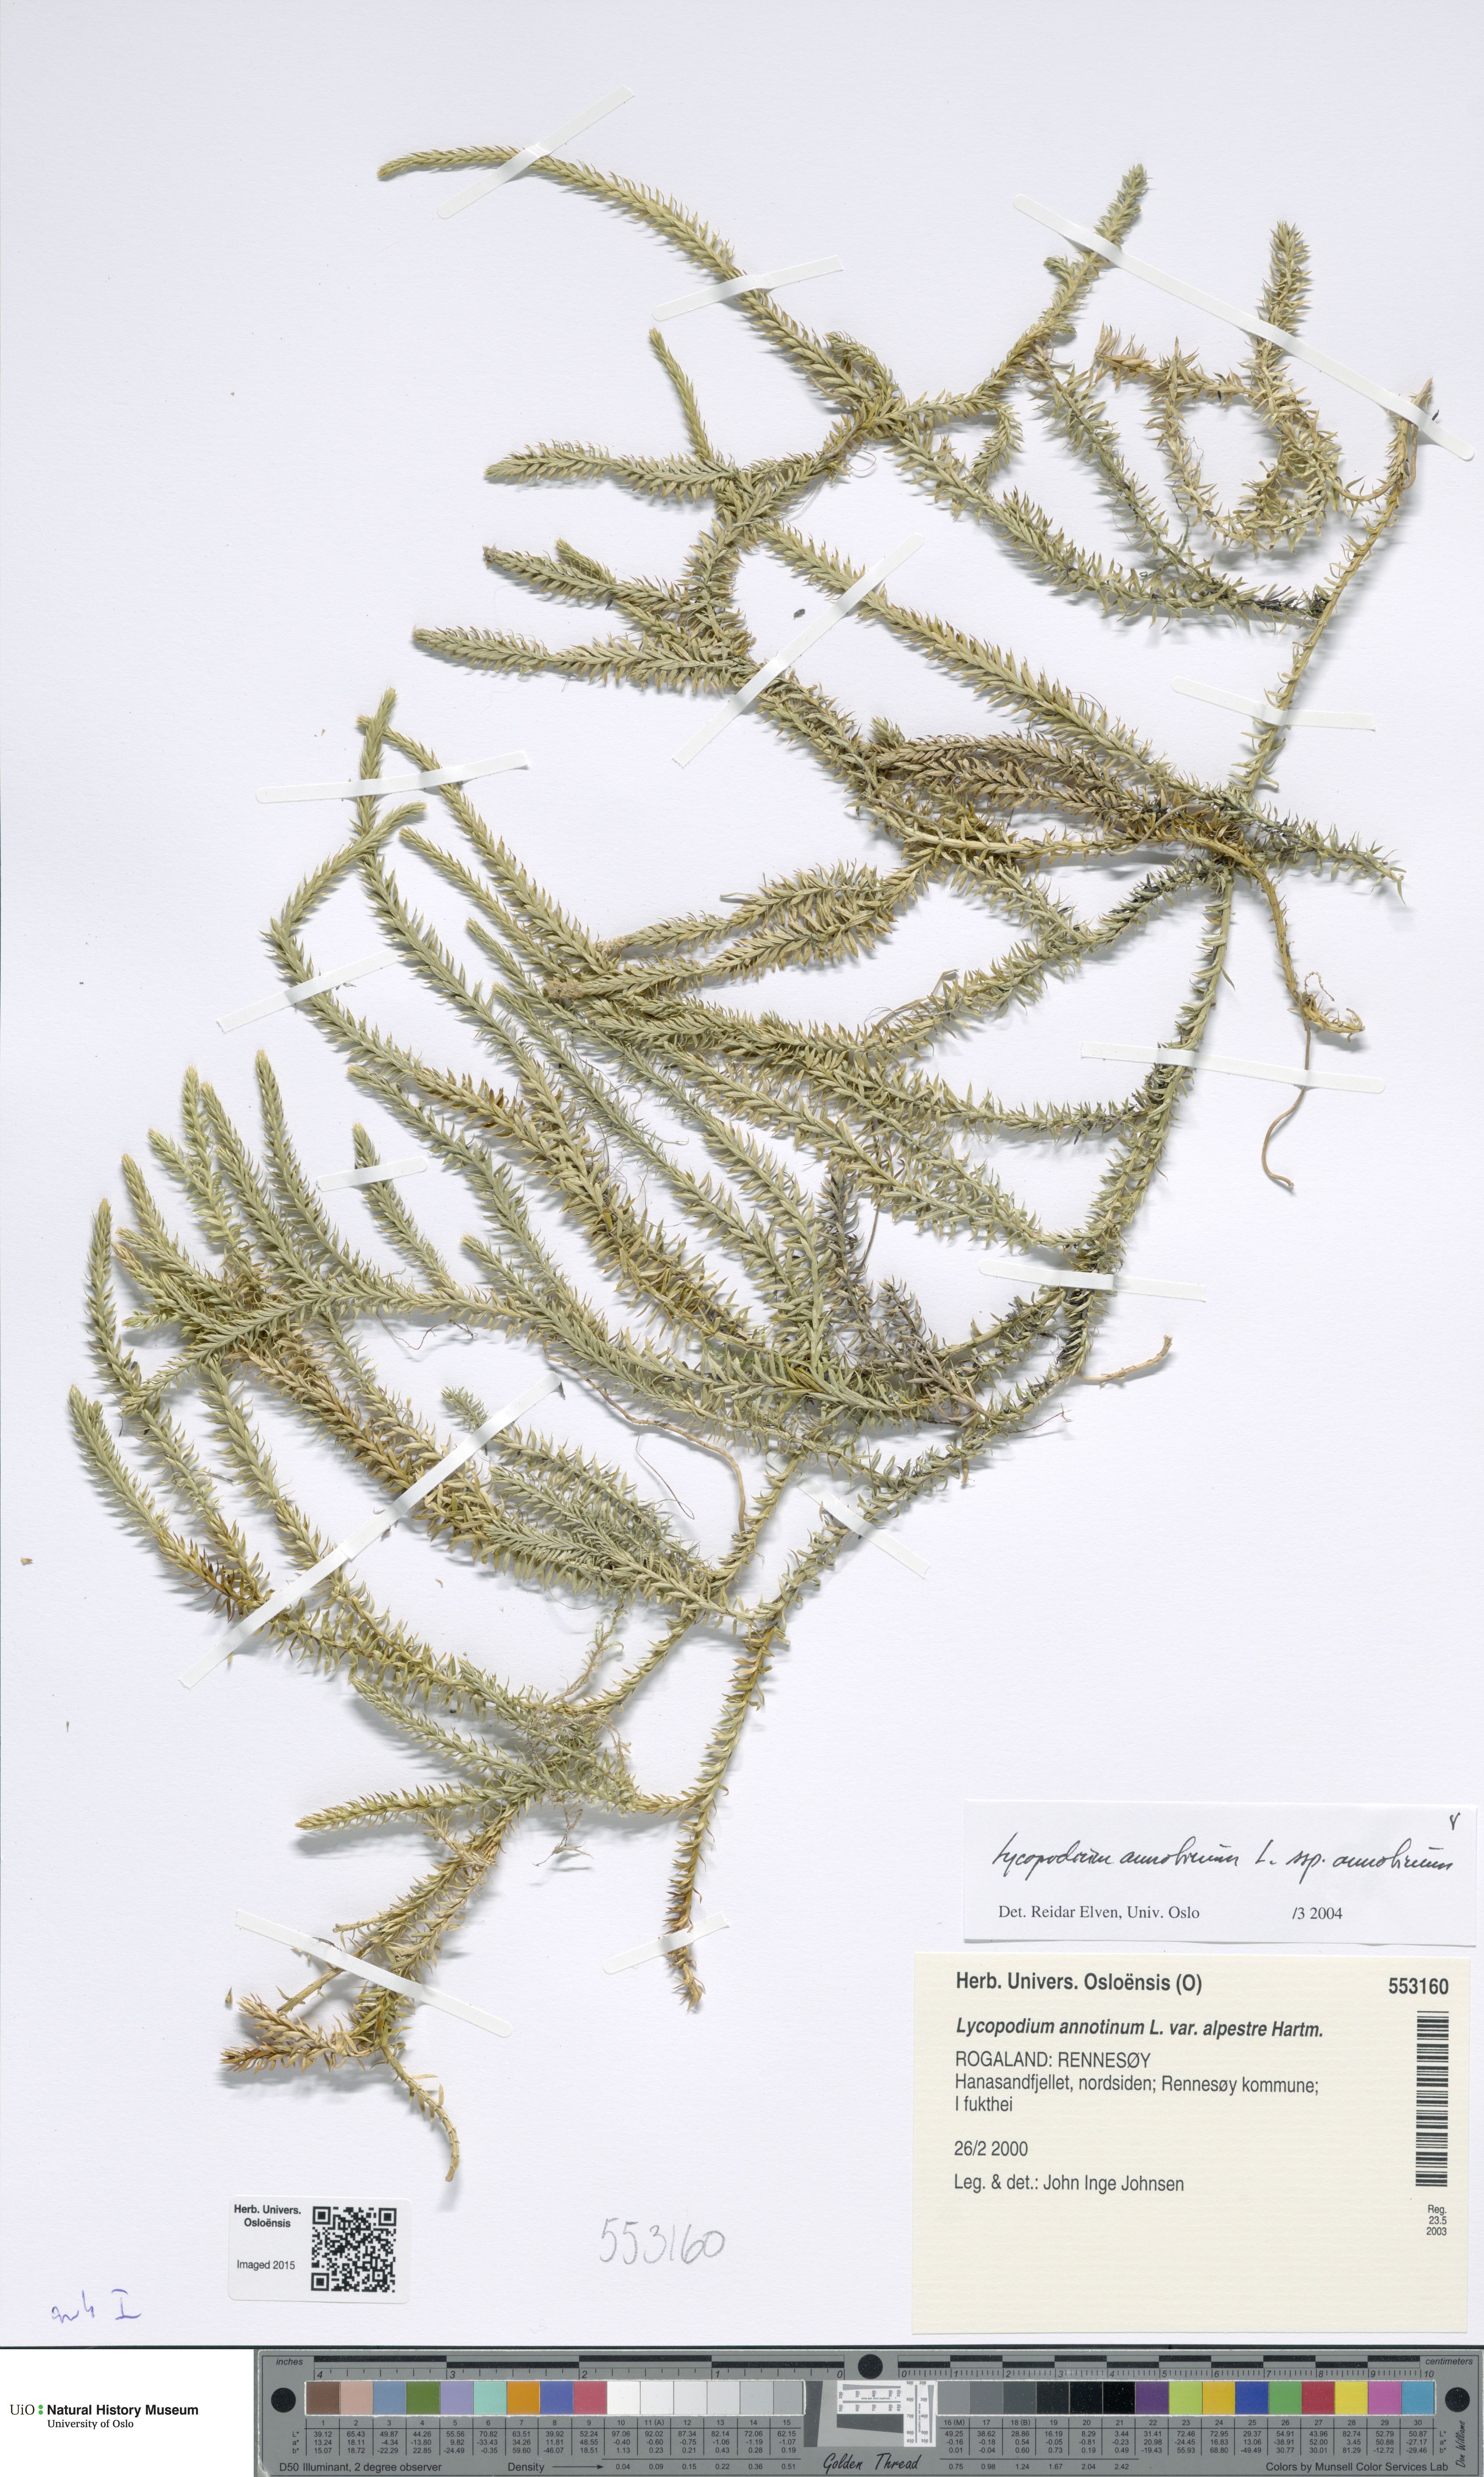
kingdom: Plantae
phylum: Tracheophyta
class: Lycopodiopsida
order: Lycopodiales
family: Lycopodiaceae
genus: Spinulum
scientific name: Spinulum annotinum
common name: Interrupted club-moss
